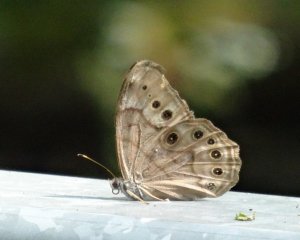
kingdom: Animalia
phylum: Arthropoda
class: Insecta
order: Lepidoptera
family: Nymphalidae
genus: Lethe
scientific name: Lethe anthedon
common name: Northern Pearly-Eye
